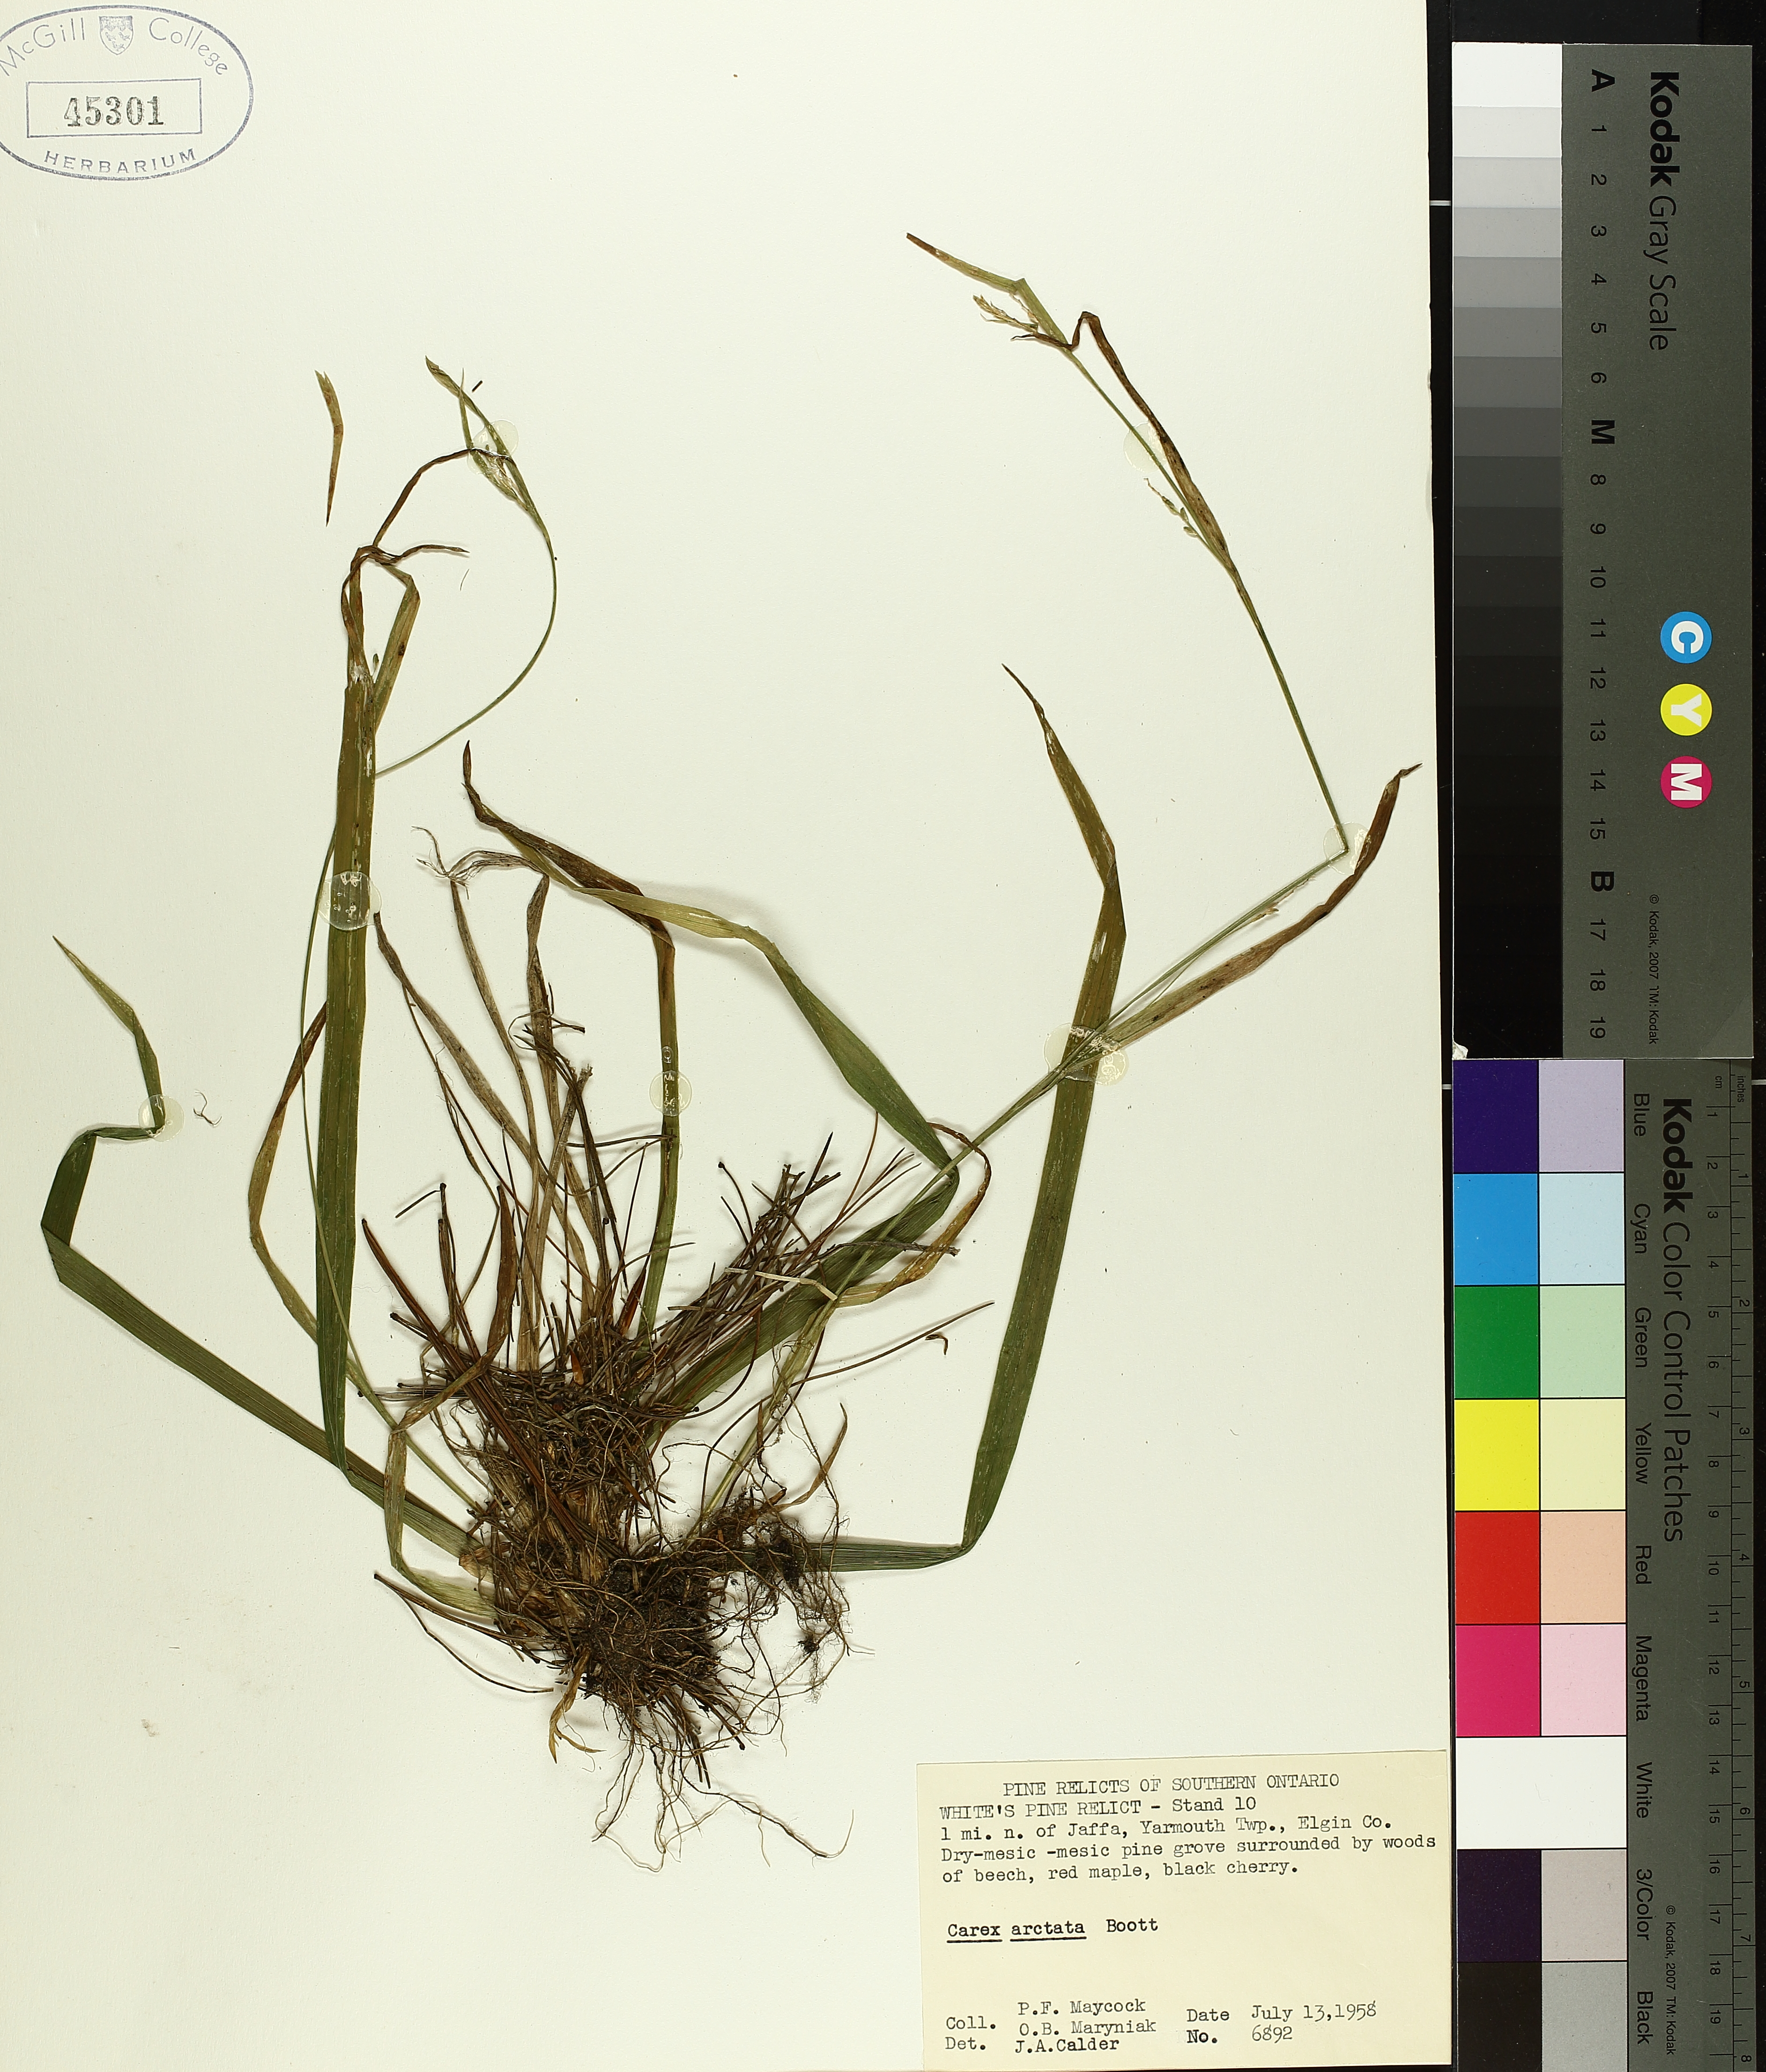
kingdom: Plantae
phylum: Tracheophyta
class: Liliopsida
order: Poales
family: Cyperaceae
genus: Carex
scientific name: Carex arctata
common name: Black sedge
